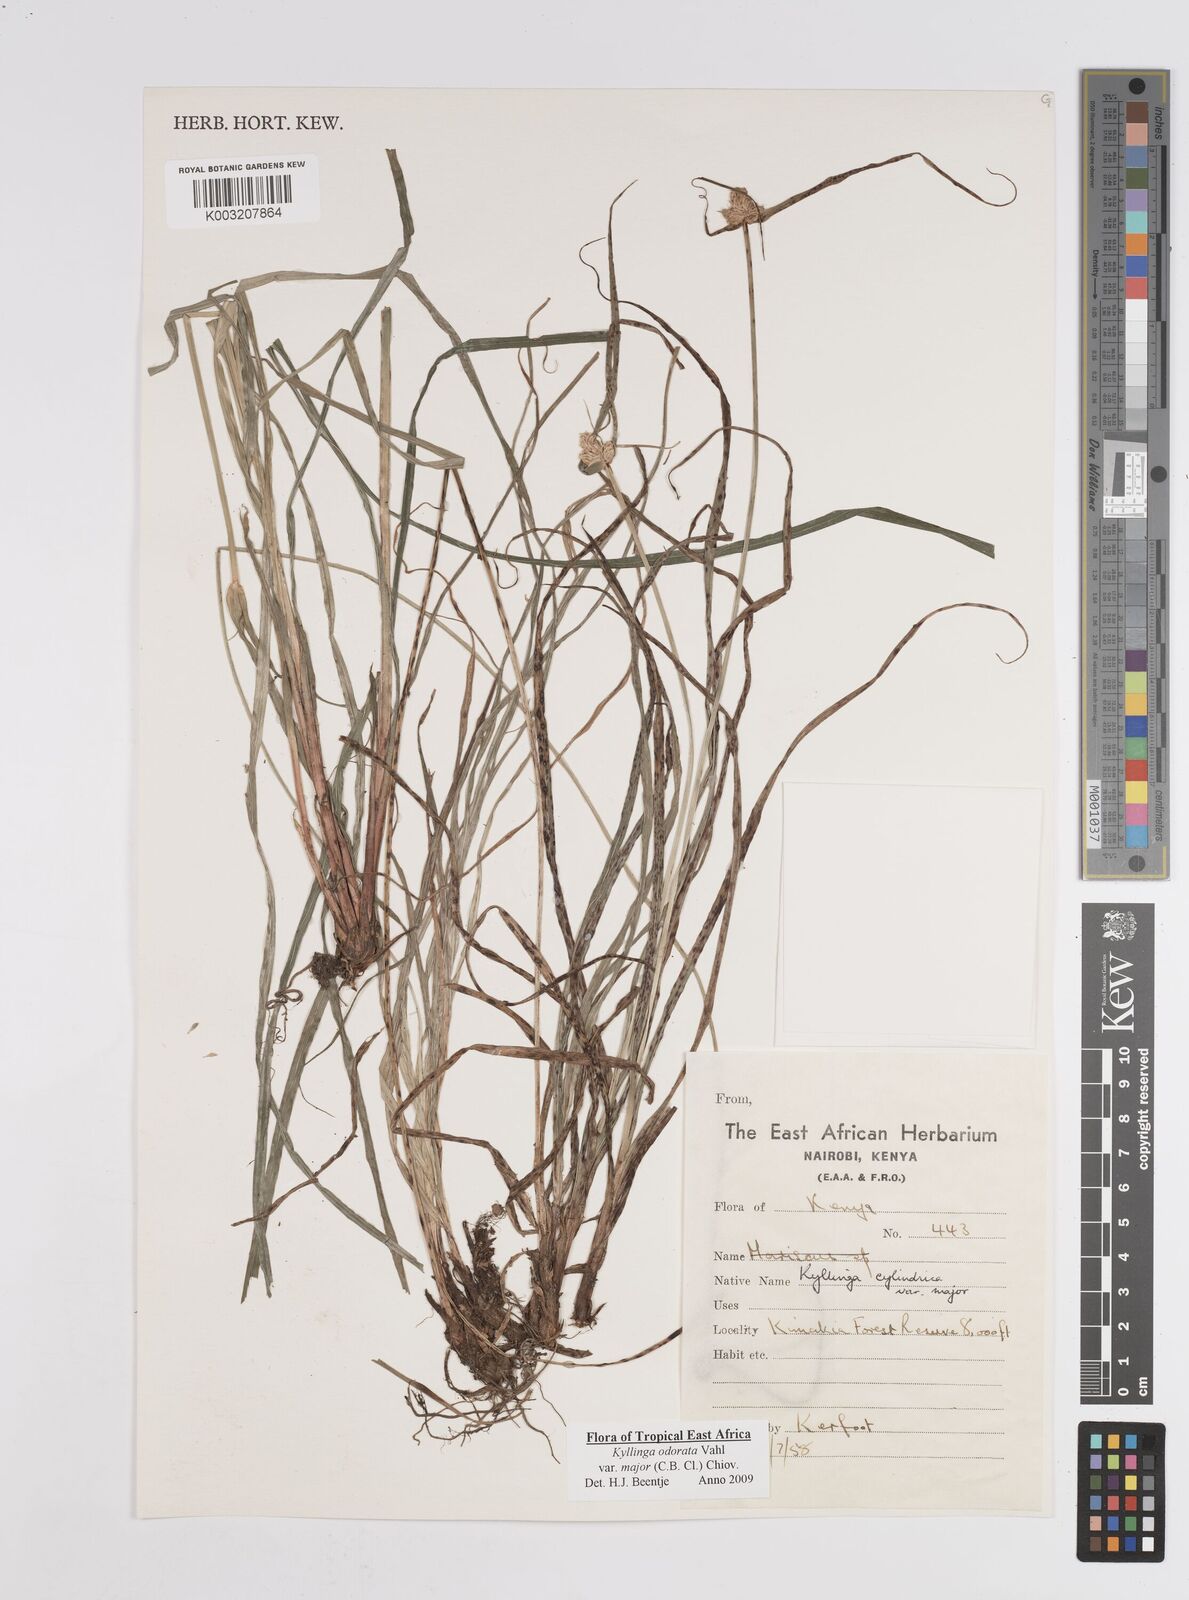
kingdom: Plantae
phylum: Tracheophyta
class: Liliopsida
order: Poales
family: Cyperaceae
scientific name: Cyperaceae
